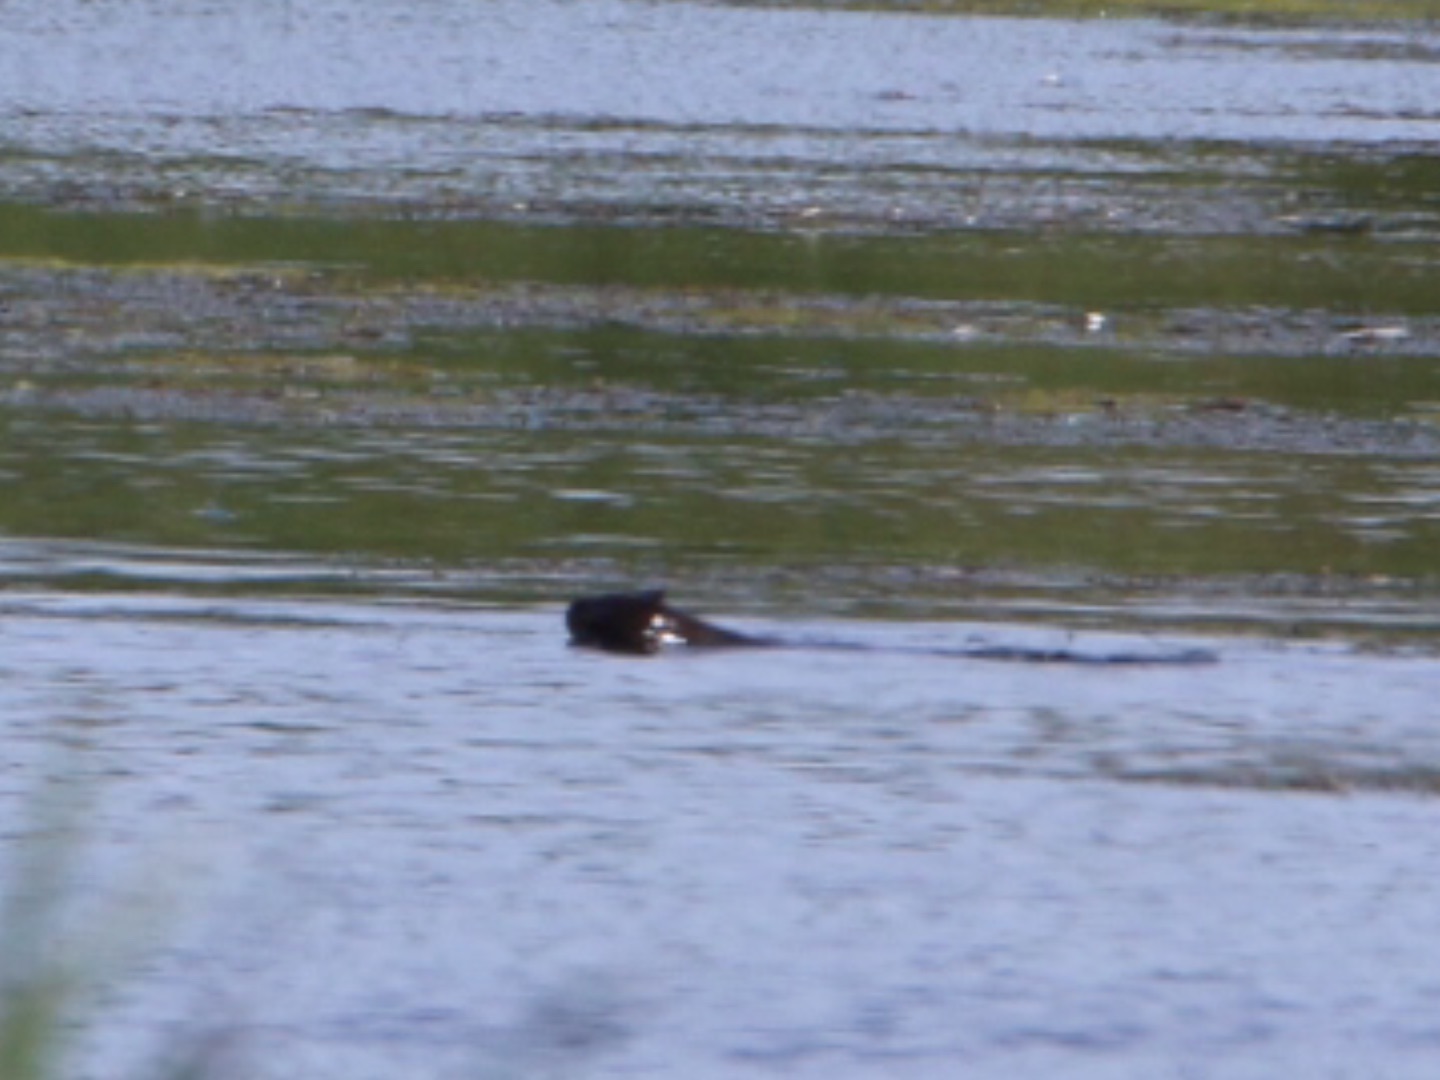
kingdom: Animalia
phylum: Chordata
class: Mammalia
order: Carnivora
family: Mustelidae
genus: Lutra
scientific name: Lutra lutra
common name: Odder
